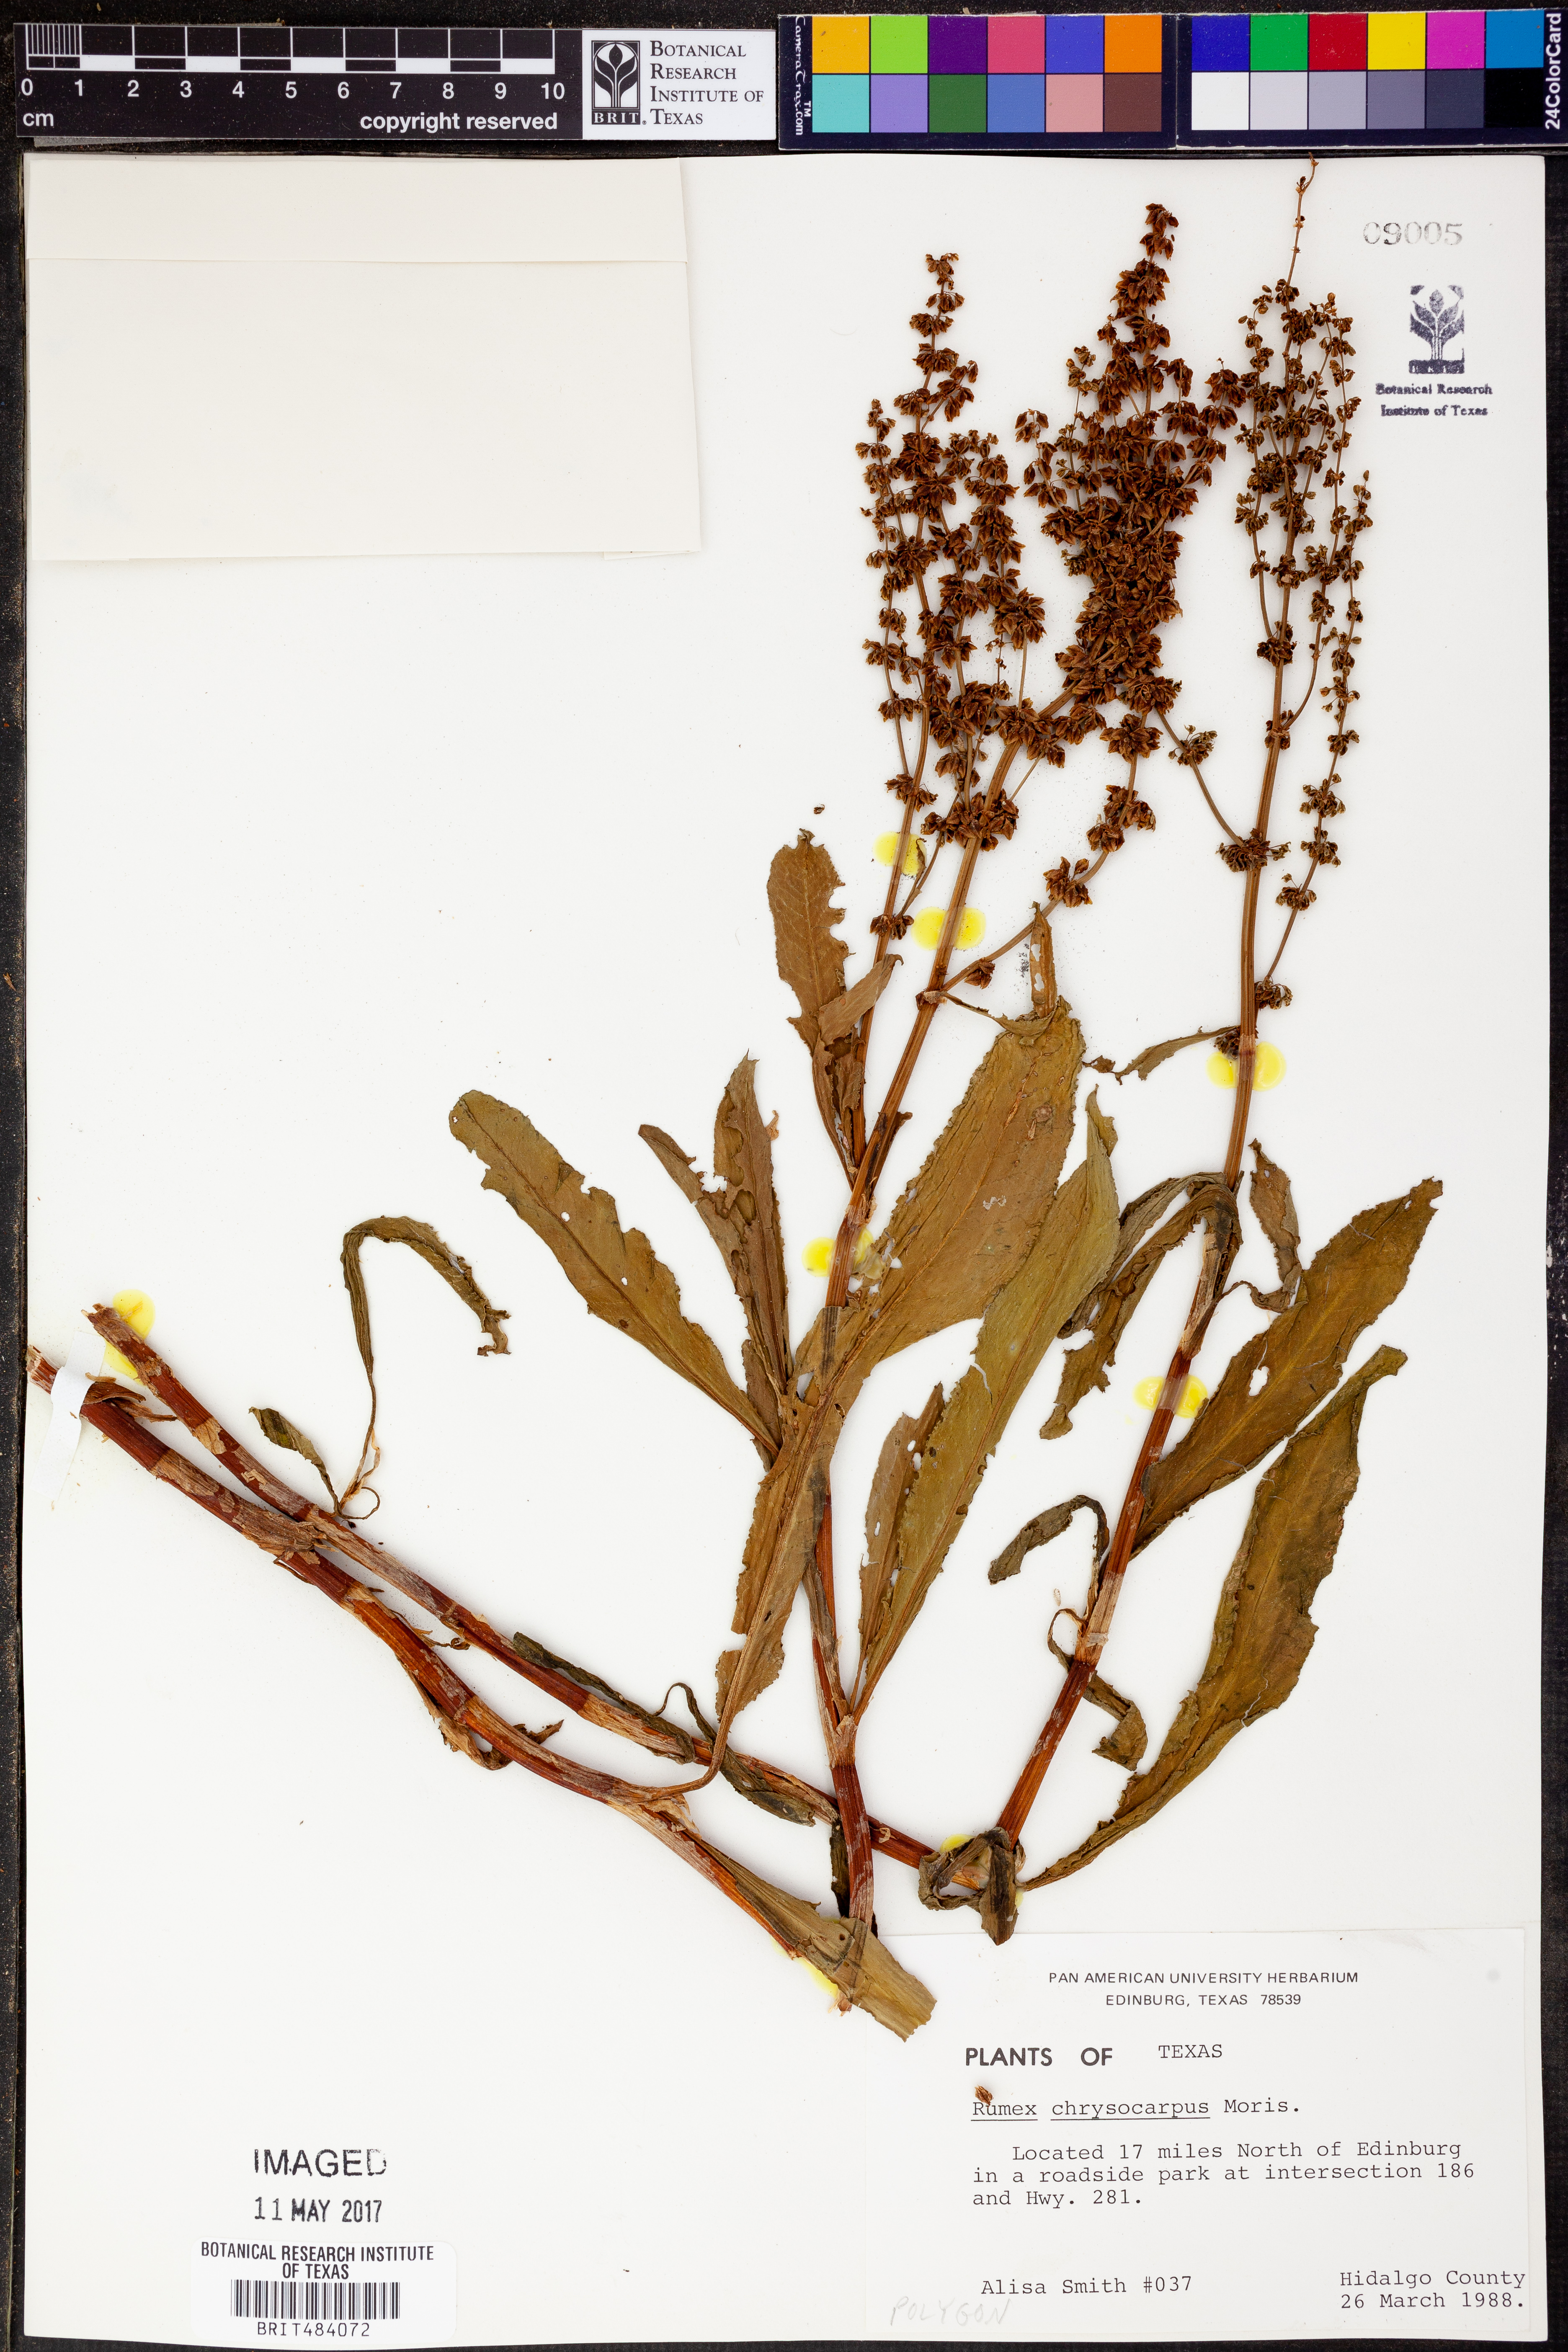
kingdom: Plantae
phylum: Tracheophyta
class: Magnoliopsida
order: Caryophyllales
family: Polygonaceae
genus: Rumex
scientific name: Rumex chrysocarpus
